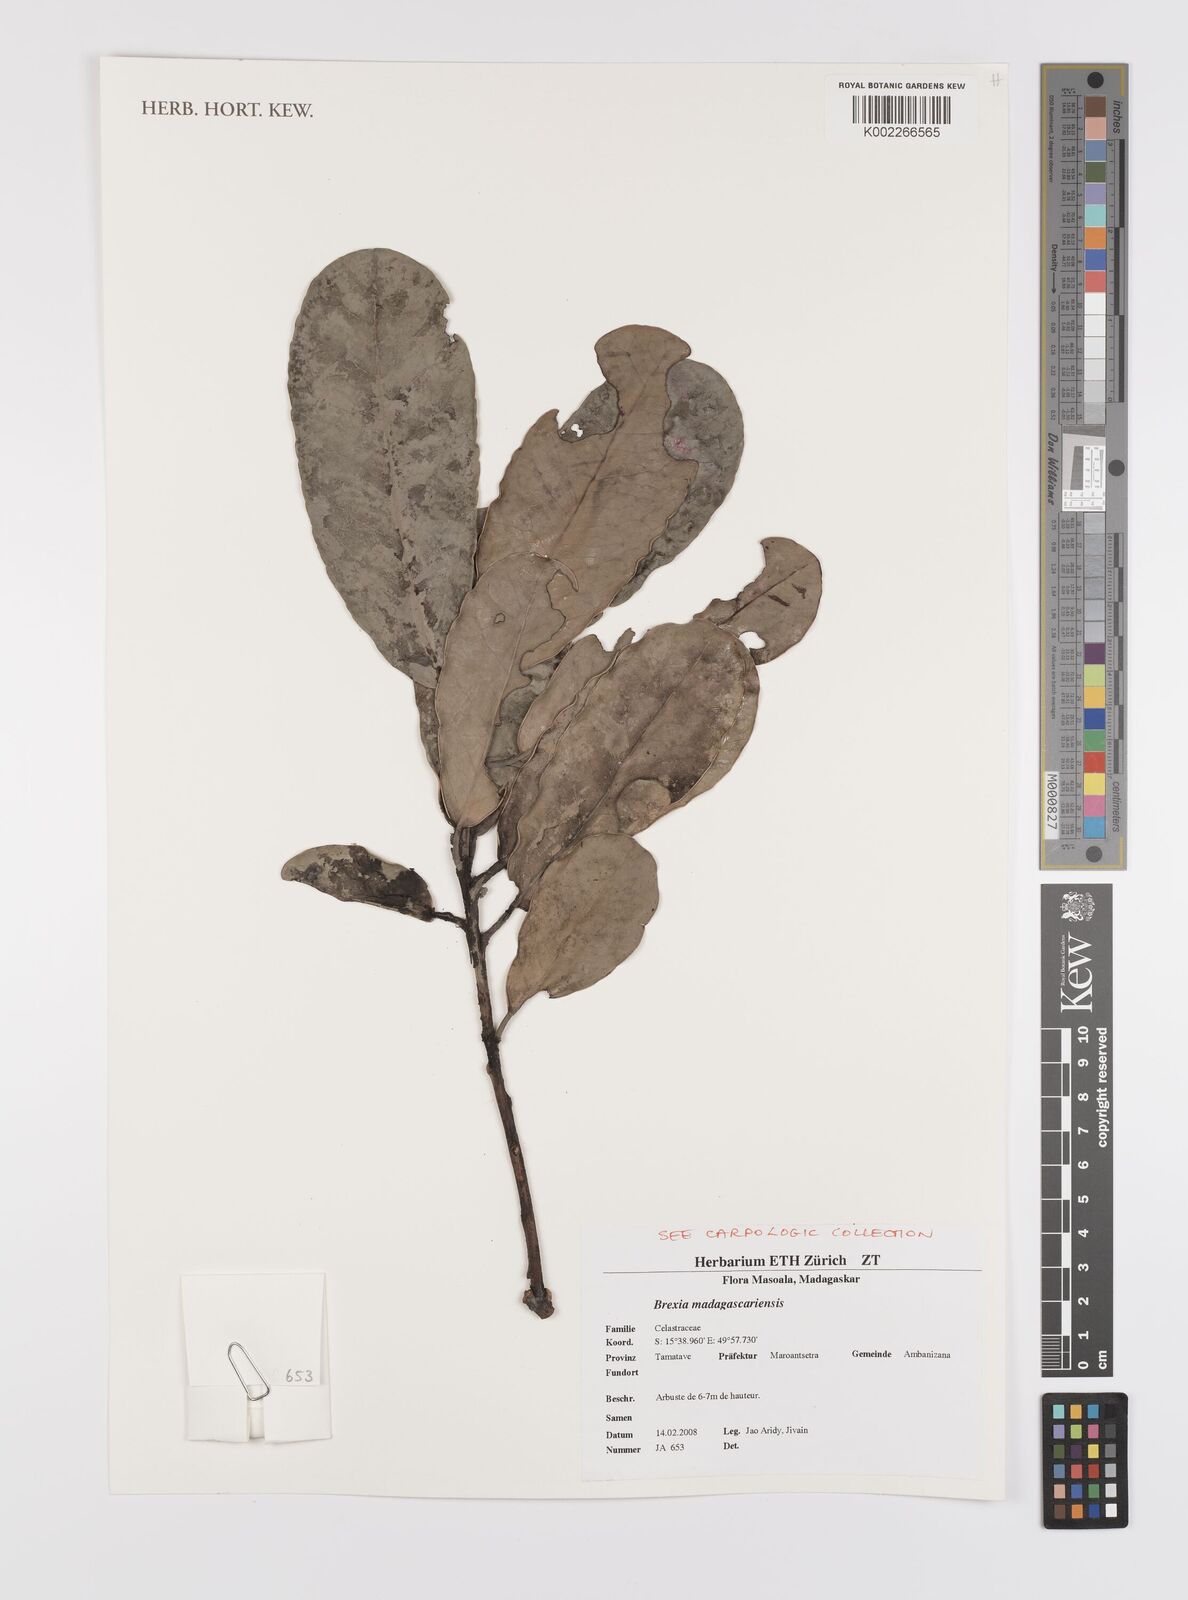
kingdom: Plantae
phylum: Tracheophyta
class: Magnoliopsida
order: Celastrales
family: Celastraceae
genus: Brexia
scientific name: Brexia madagascariensis
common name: Brexia
